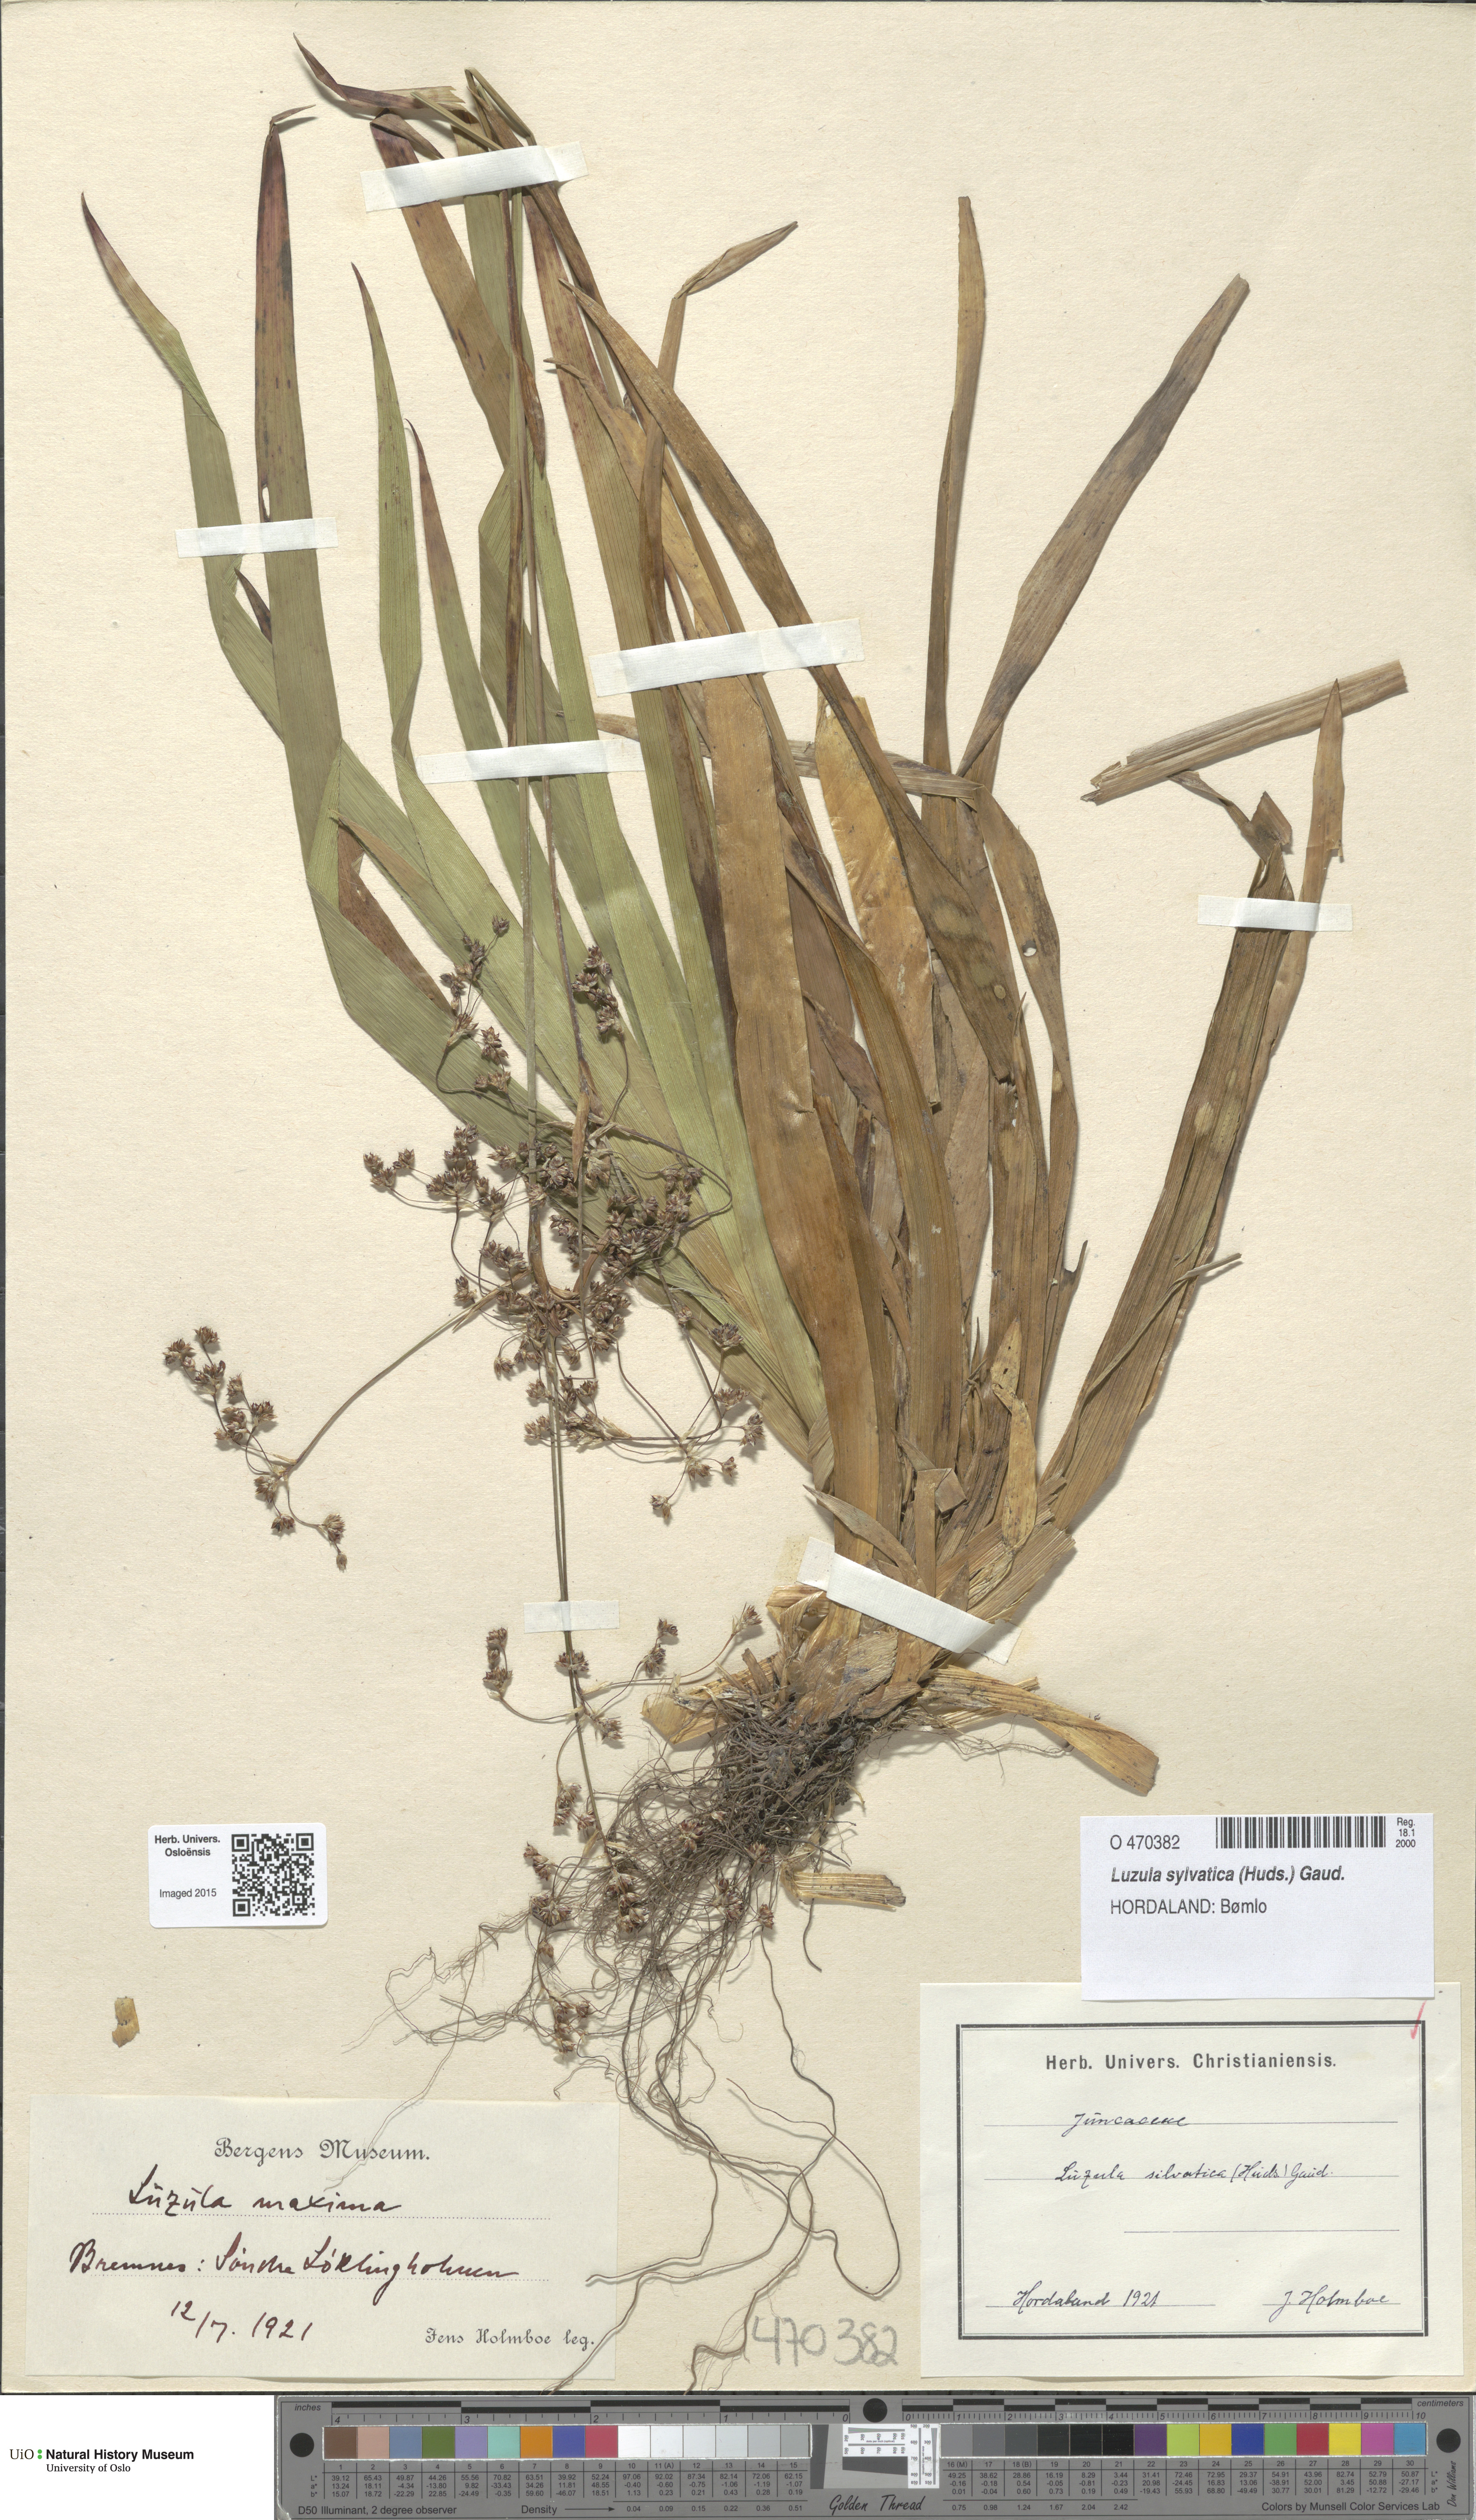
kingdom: Plantae
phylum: Tracheophyta
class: Liliopsida
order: Poales
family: Juncaceae
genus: Luzula
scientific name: Luzula sylvatica
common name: Great wood-rush
